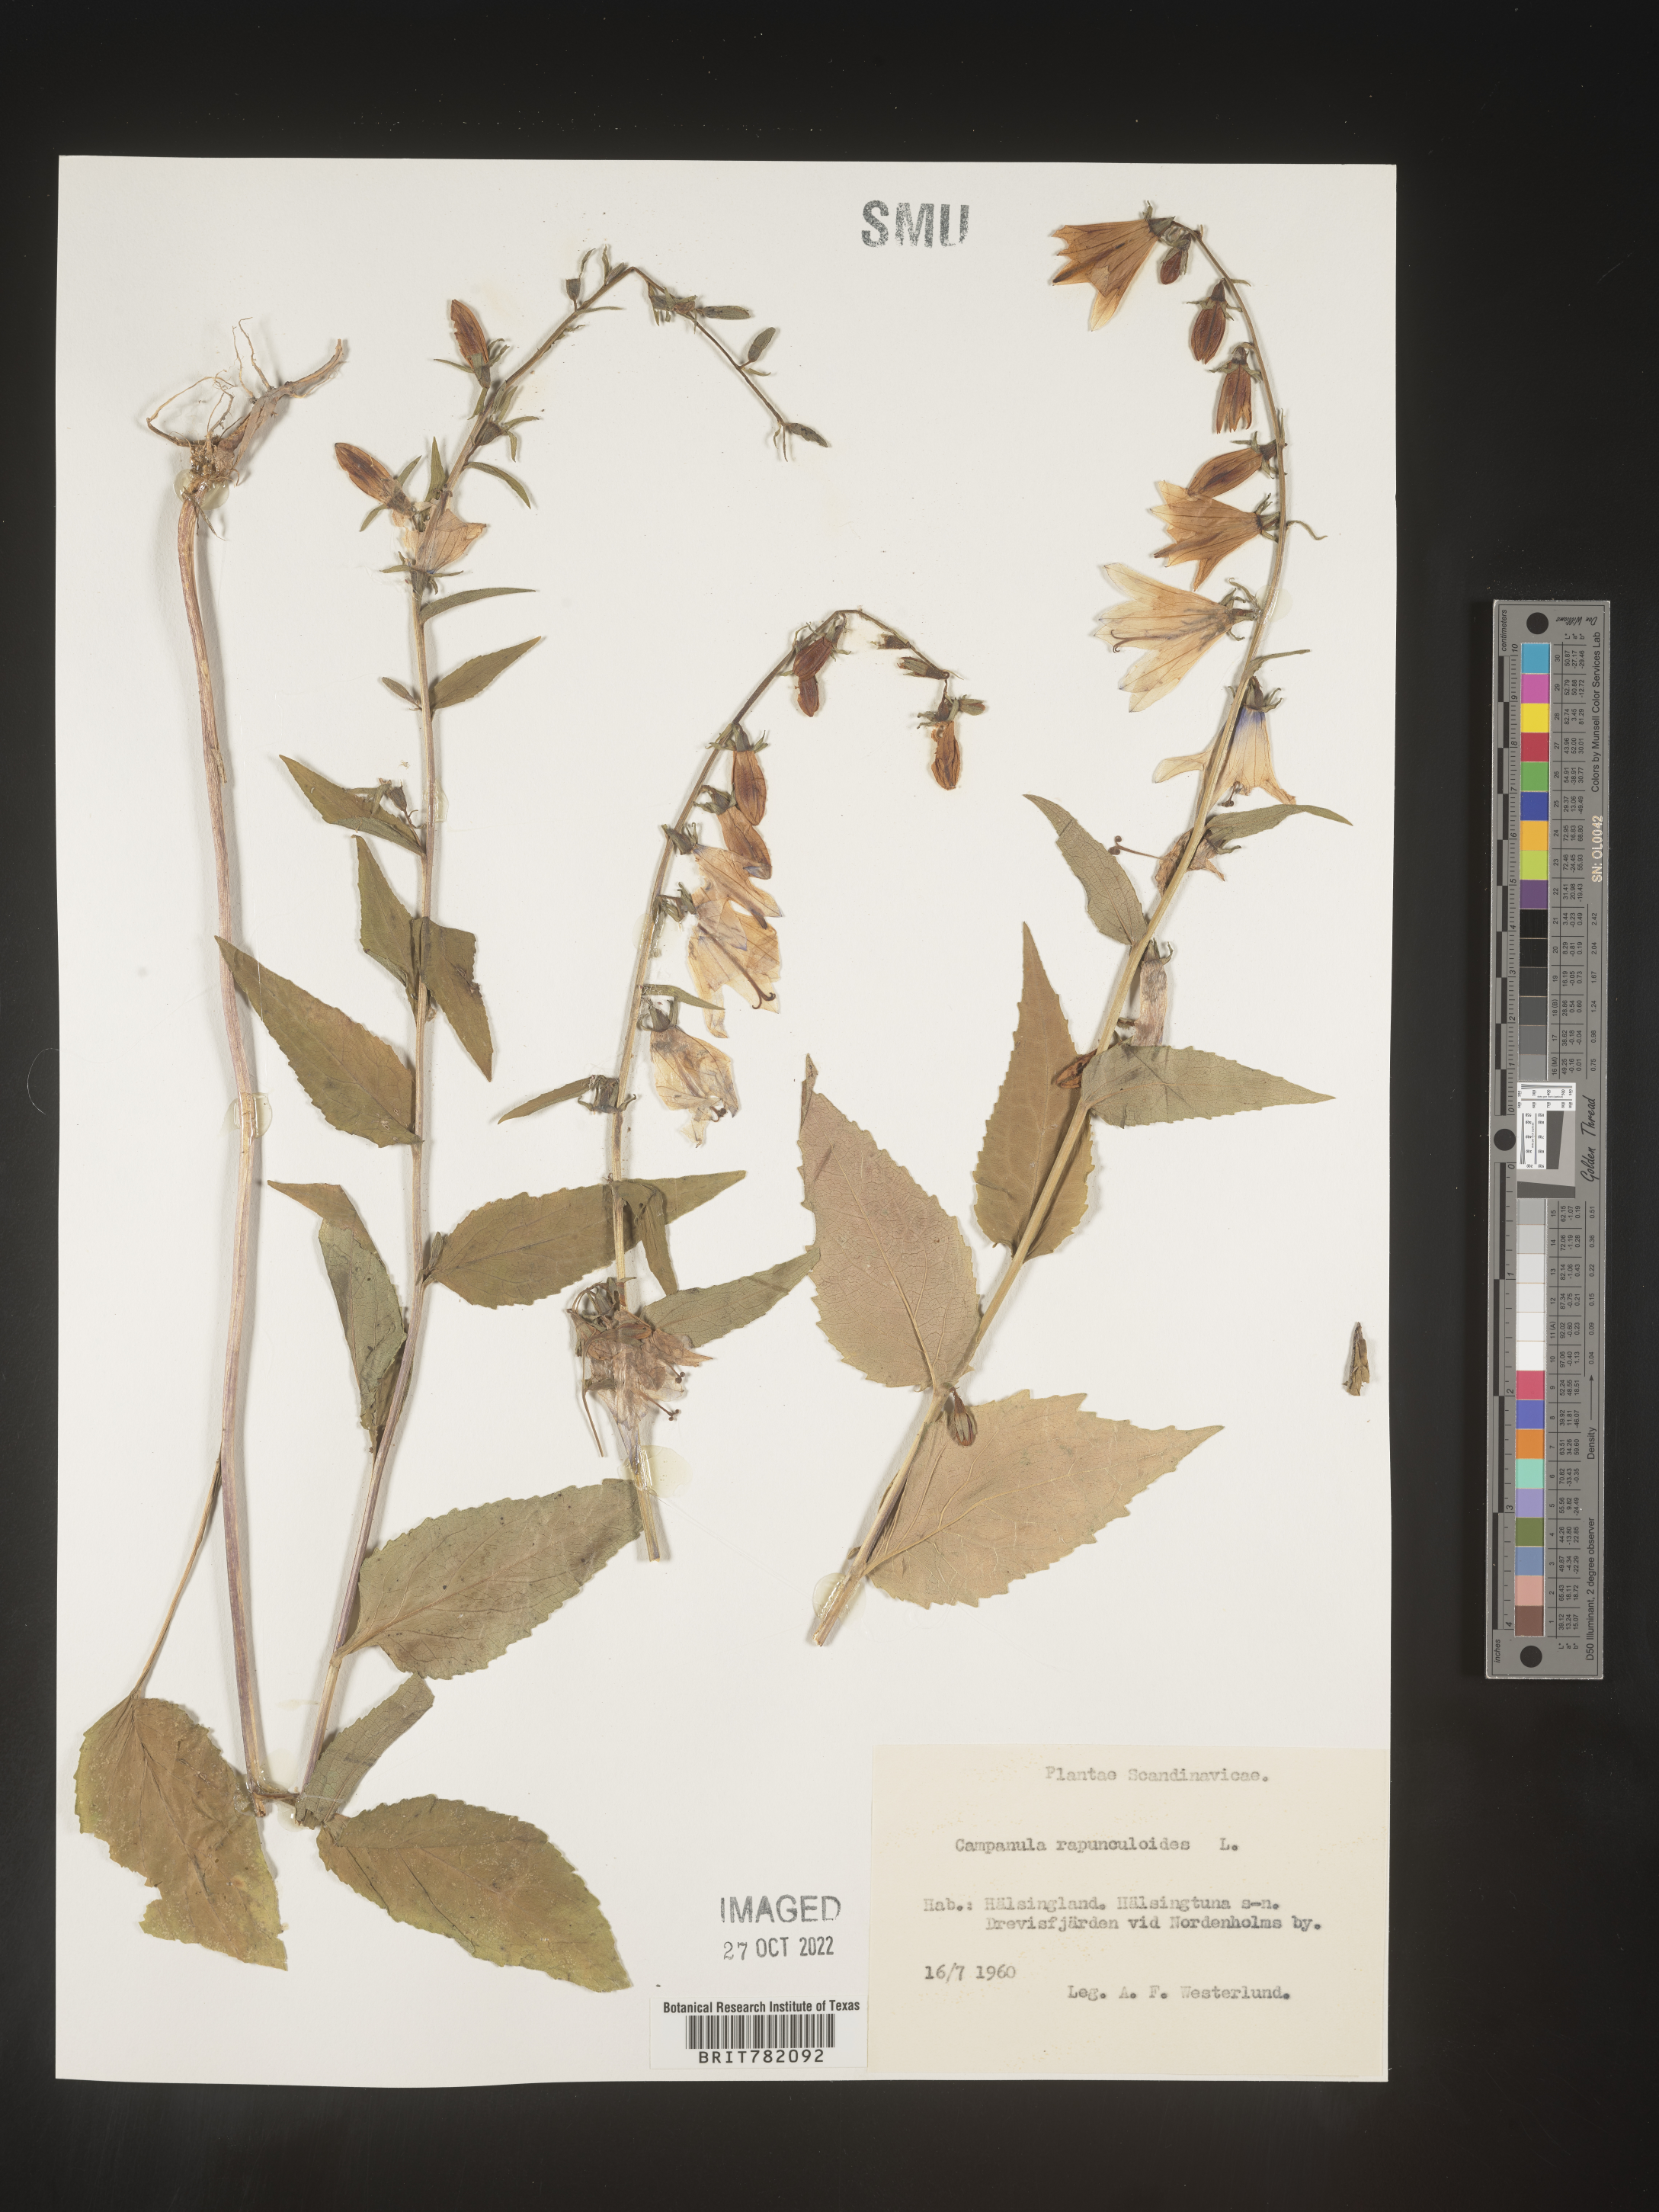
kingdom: Plantae
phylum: Tracheophyta
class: Magnoliopsida
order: Asterales
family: Campanulaceae
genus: Campanula
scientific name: Campanula
